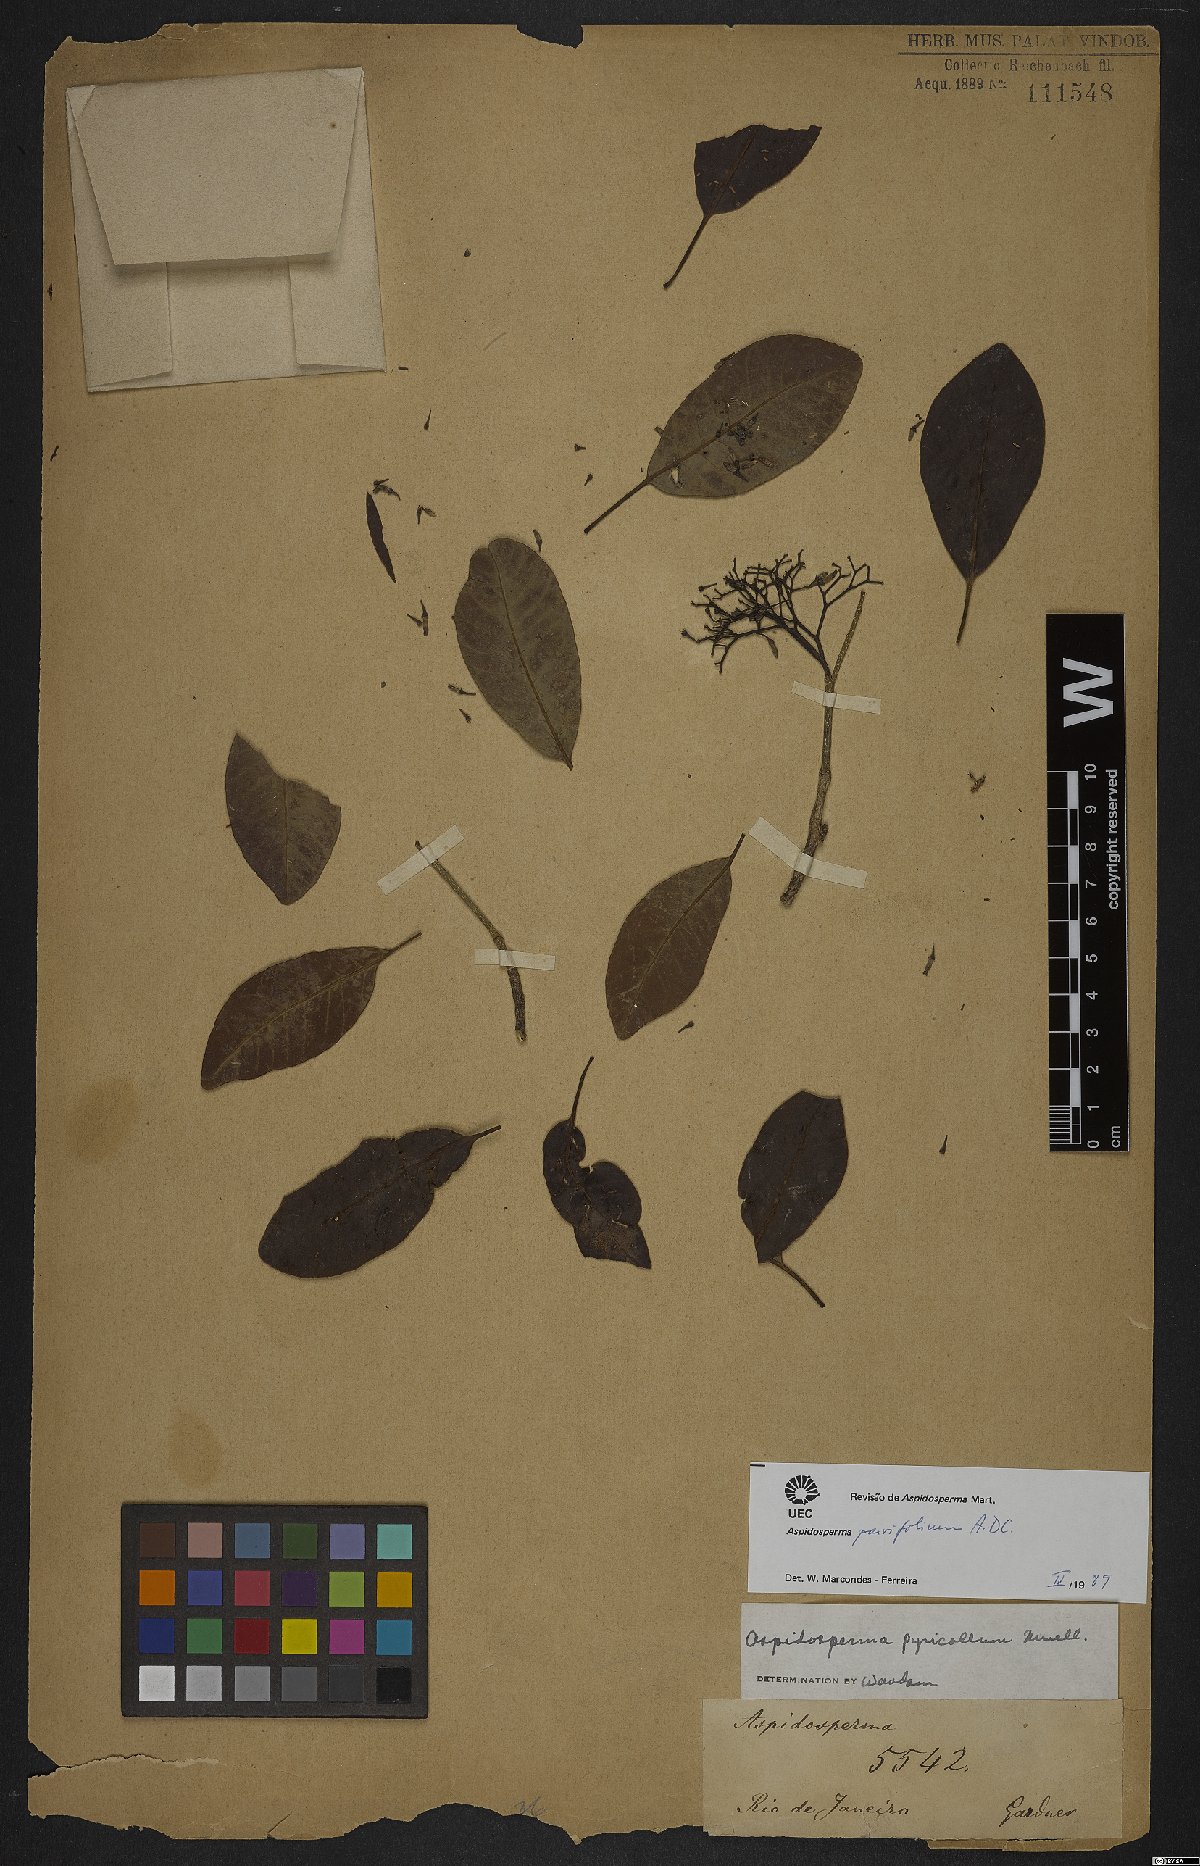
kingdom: Plantae
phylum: Tracheophyta
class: Magnoliopsida
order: Gentianales
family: Apocynaceae
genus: Aspidosperma
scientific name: Aspidosperma parvifolium
